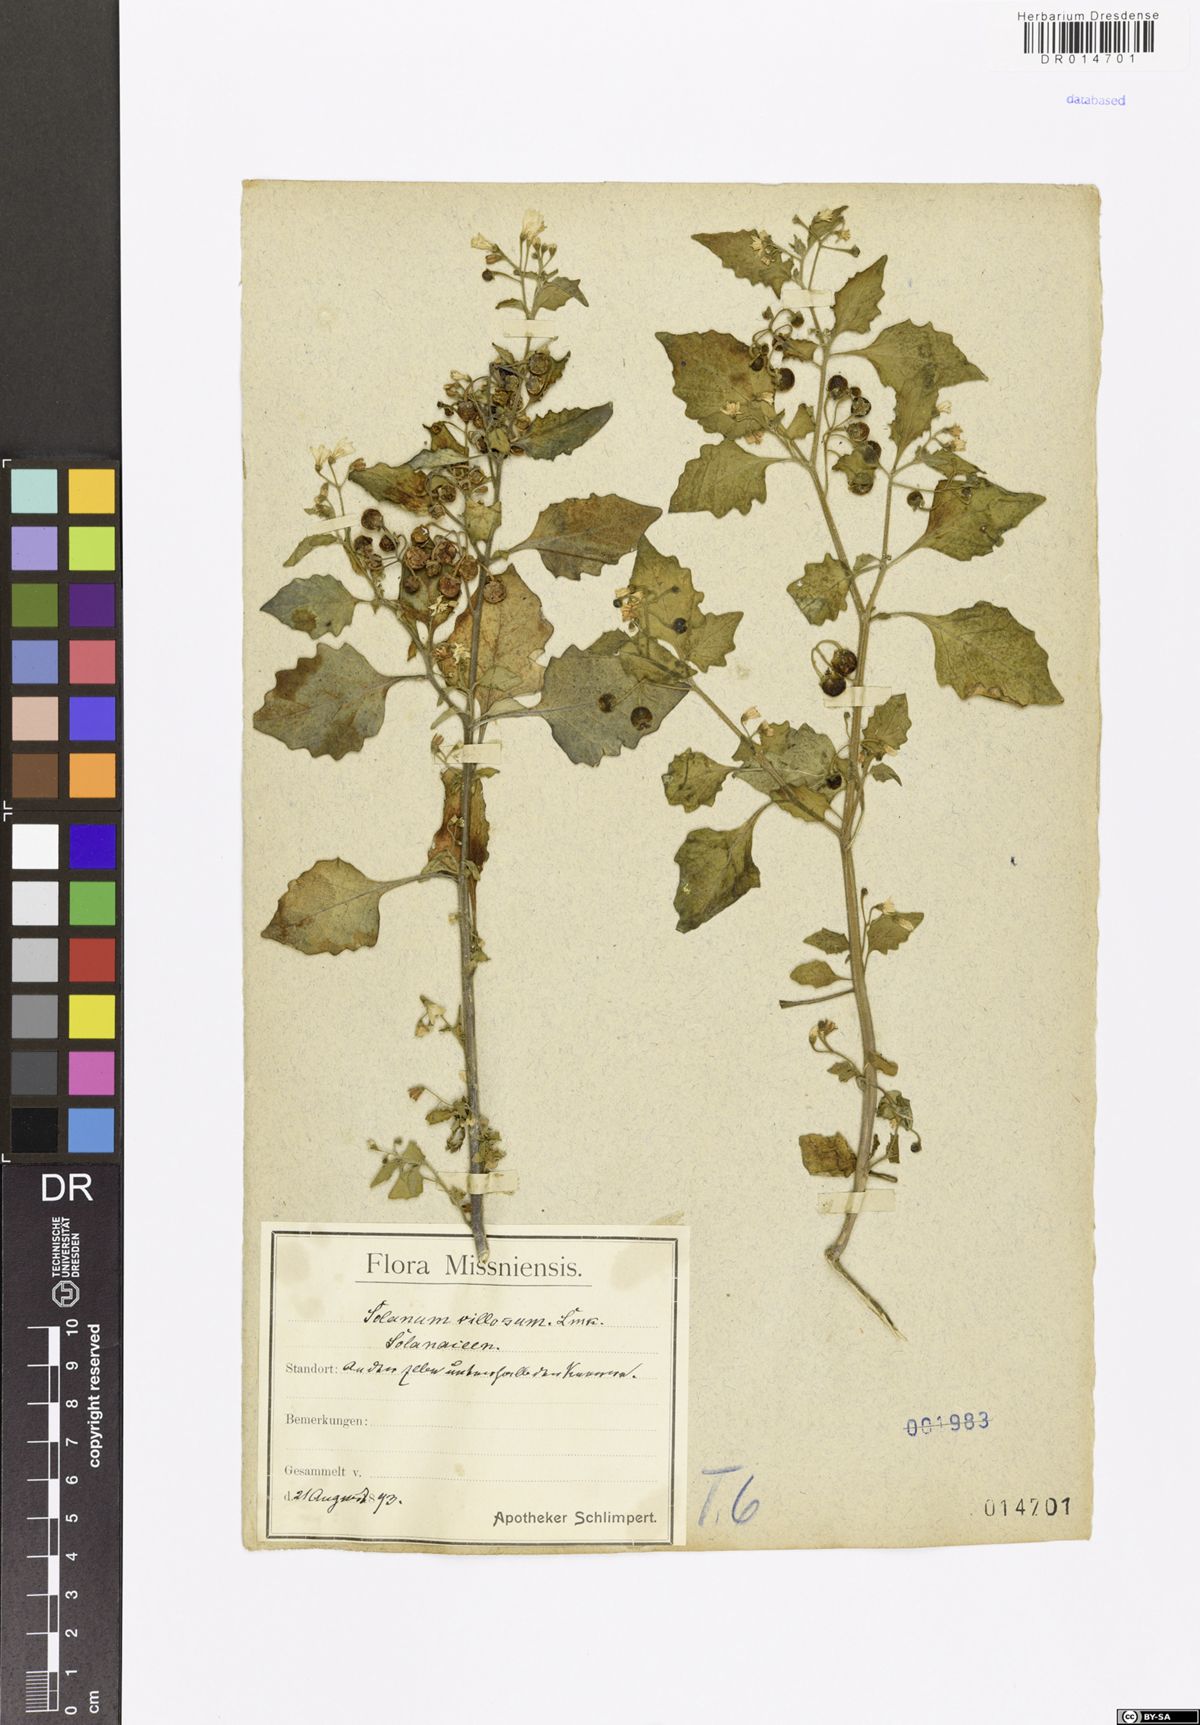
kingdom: Plantae
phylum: Tracheophyta
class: Magnoliopsida
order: Solanales
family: Solanaceae
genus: Solanum
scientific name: Solanum villosum
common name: Red nightshade
